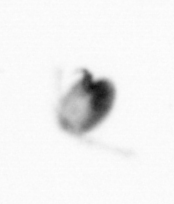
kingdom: Animalia
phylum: Arthropoda
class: Copepoda
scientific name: Copepoda
